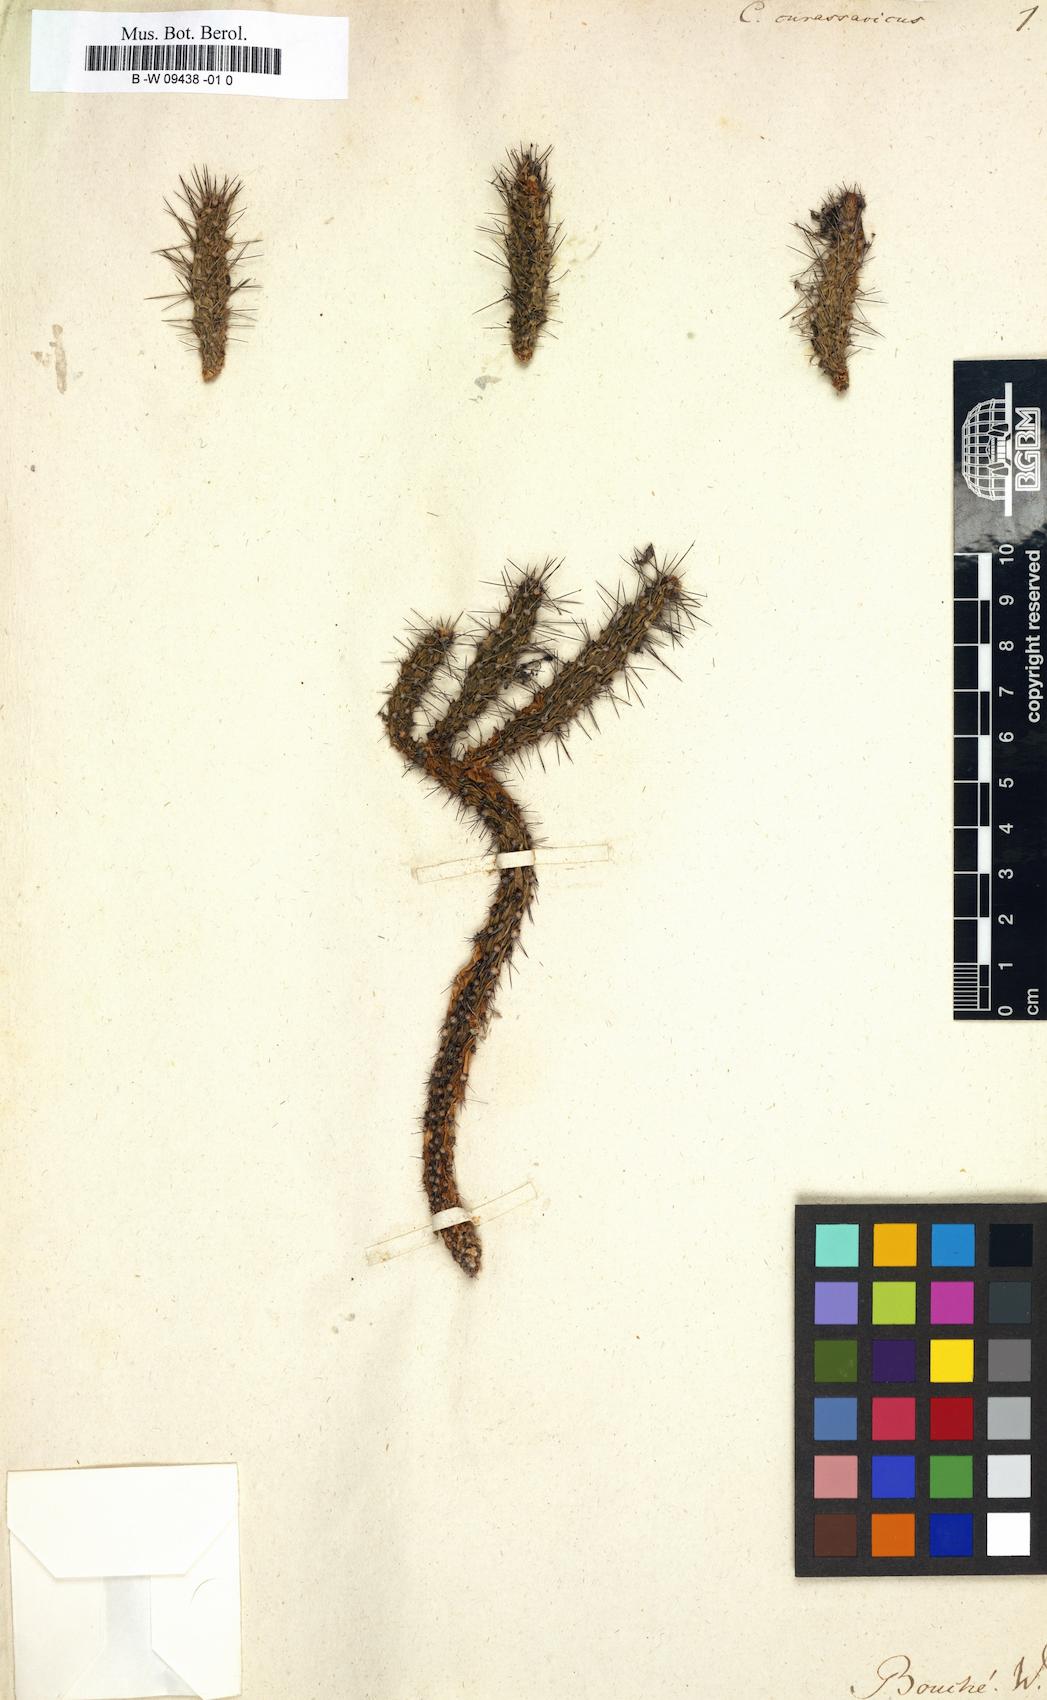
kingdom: Plantae
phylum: Tracheophyta
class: Magnoliopsida
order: Caryophyllales
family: Cactaceae
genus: Opuntia
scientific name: Opuntia curassavica
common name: Cylindrical prickly pear
